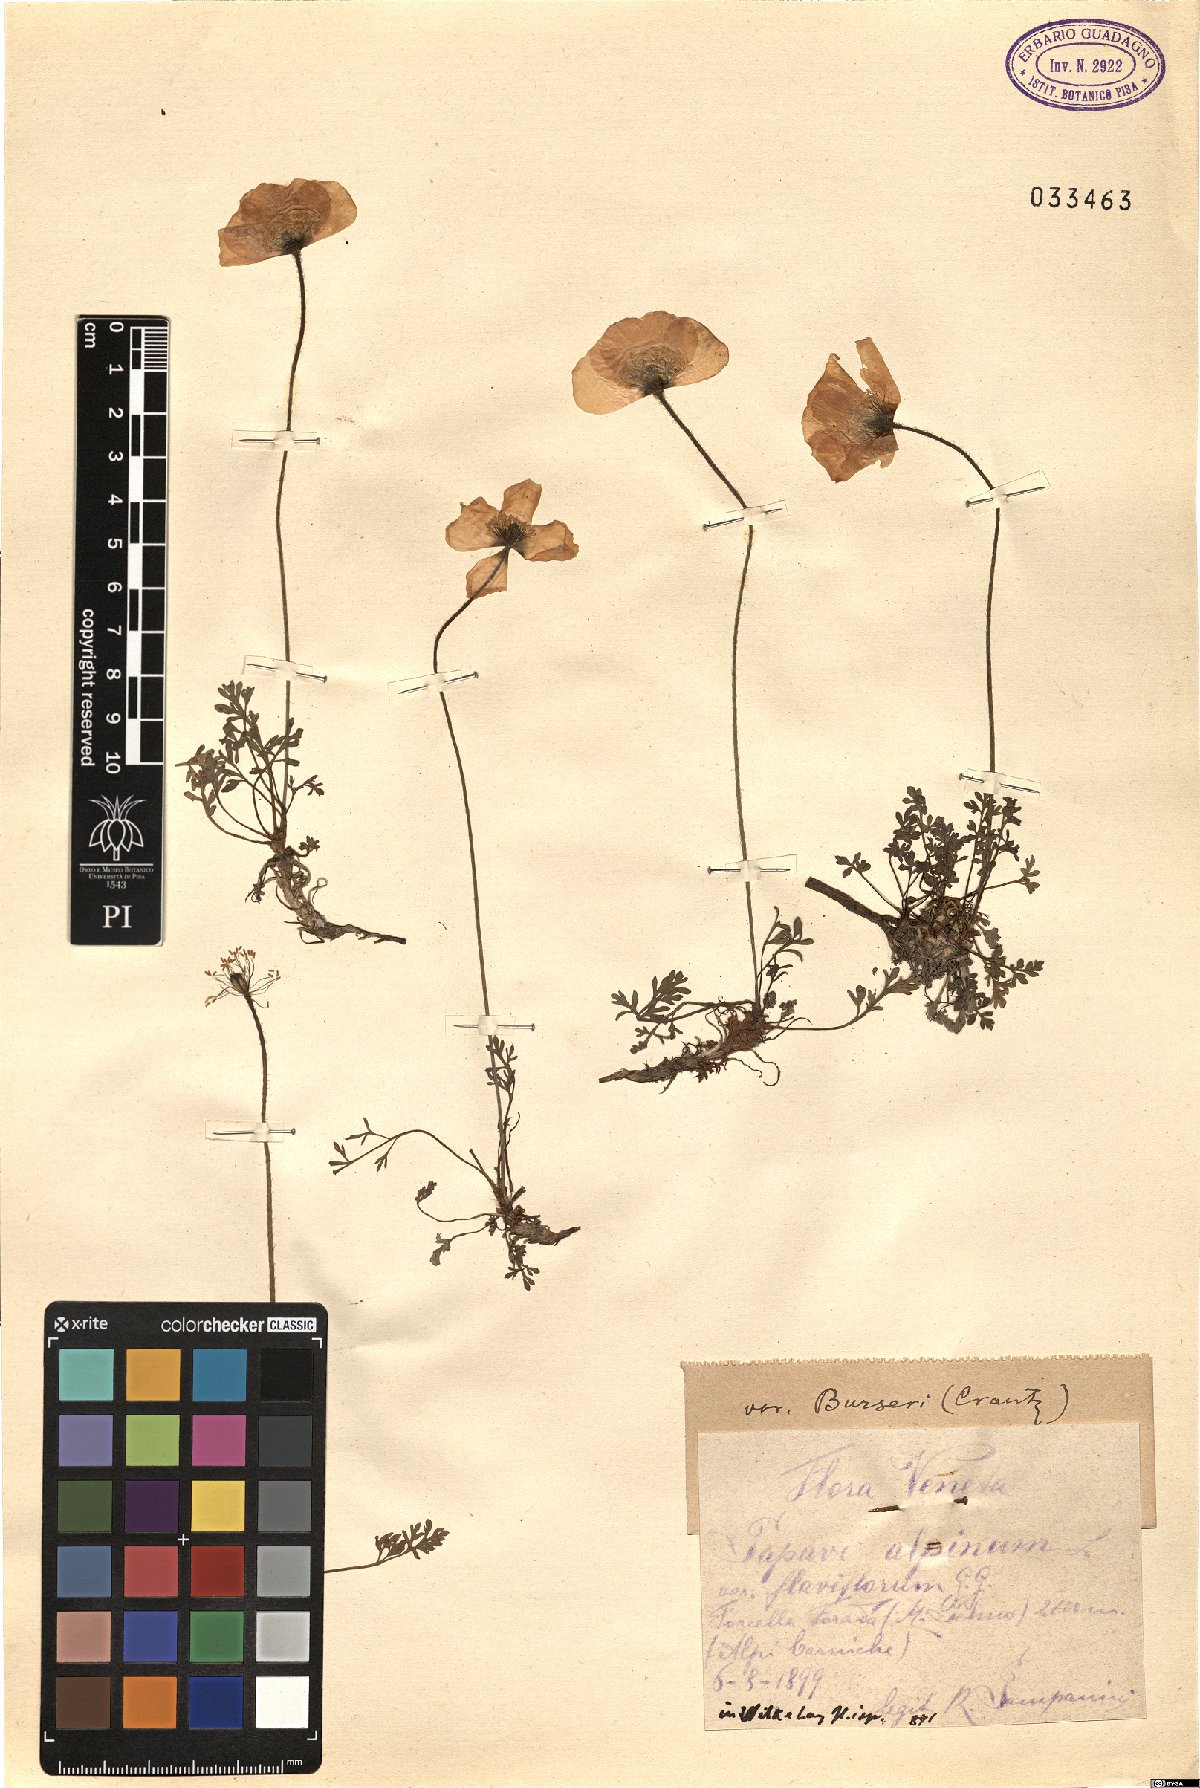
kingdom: Plantae
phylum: Tracheophyta
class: Magnoliopsida
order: Ranunculales
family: Papaveraceae
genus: Papaver
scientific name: Papaver alpinum
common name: Austrian poppy
